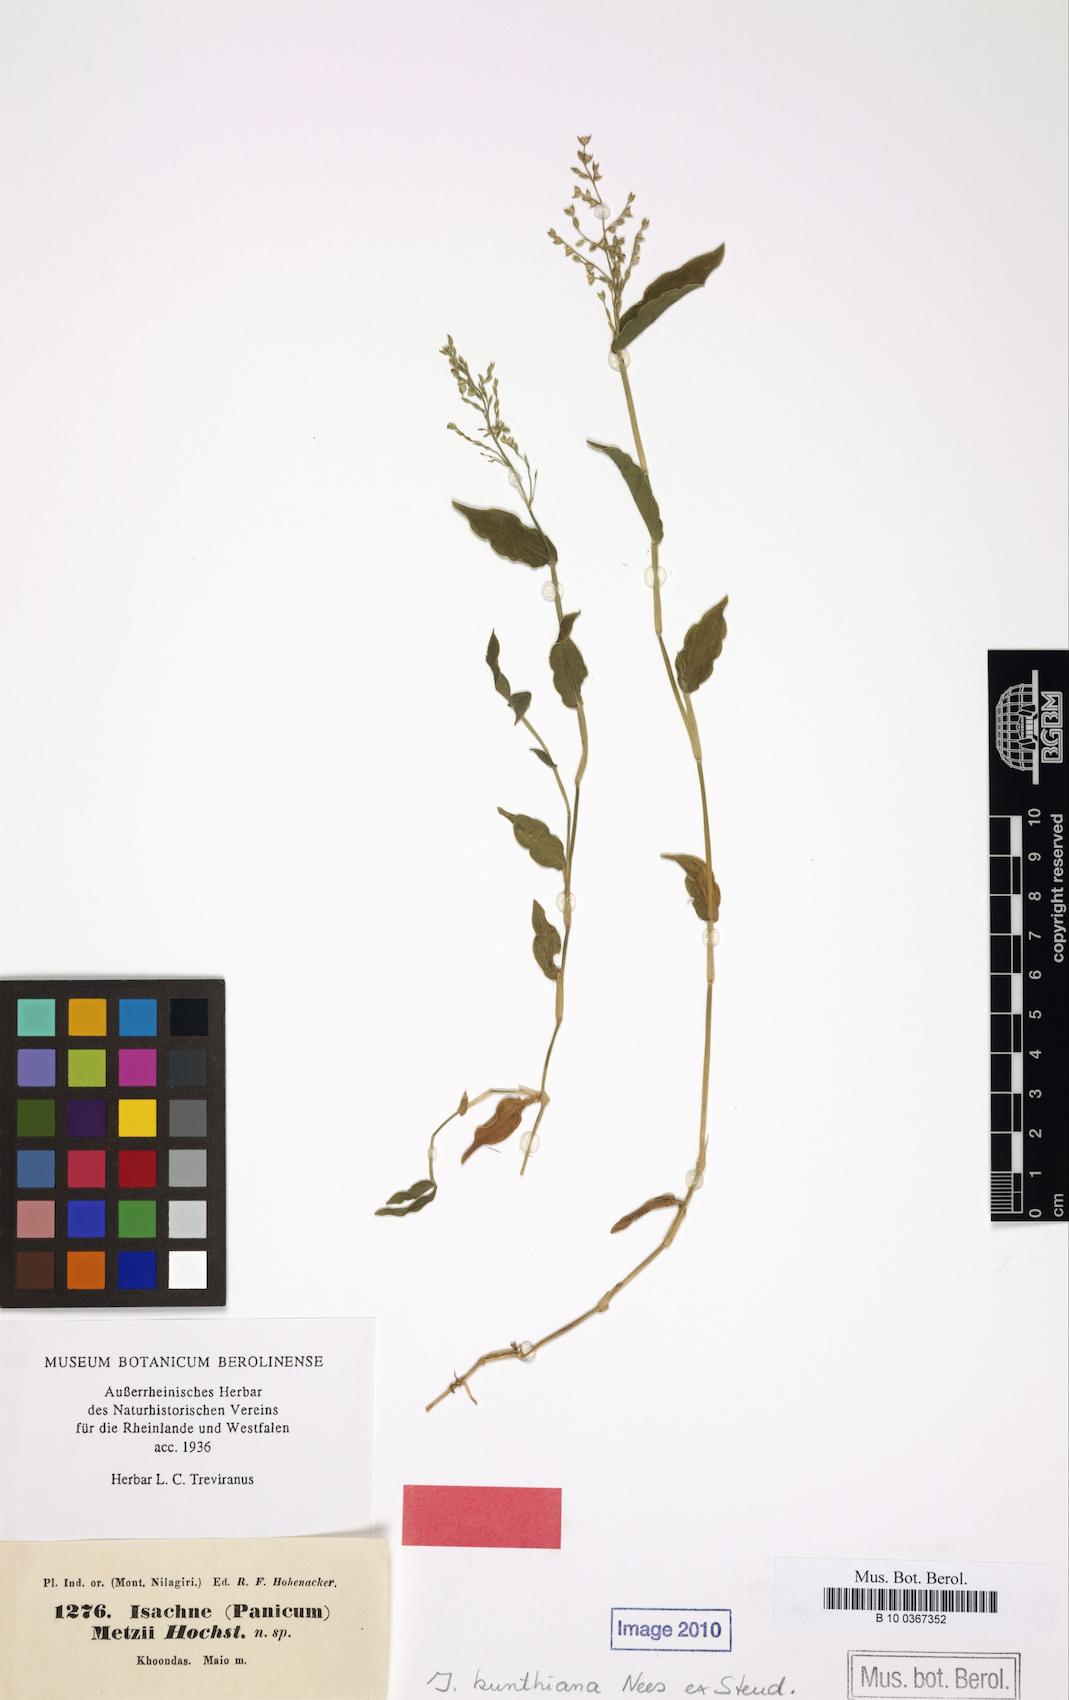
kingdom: Plantae
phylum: Tracheophyta
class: Liliopsida
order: Poales
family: Poaceae
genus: Isachne
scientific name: Isachne kunthiana
